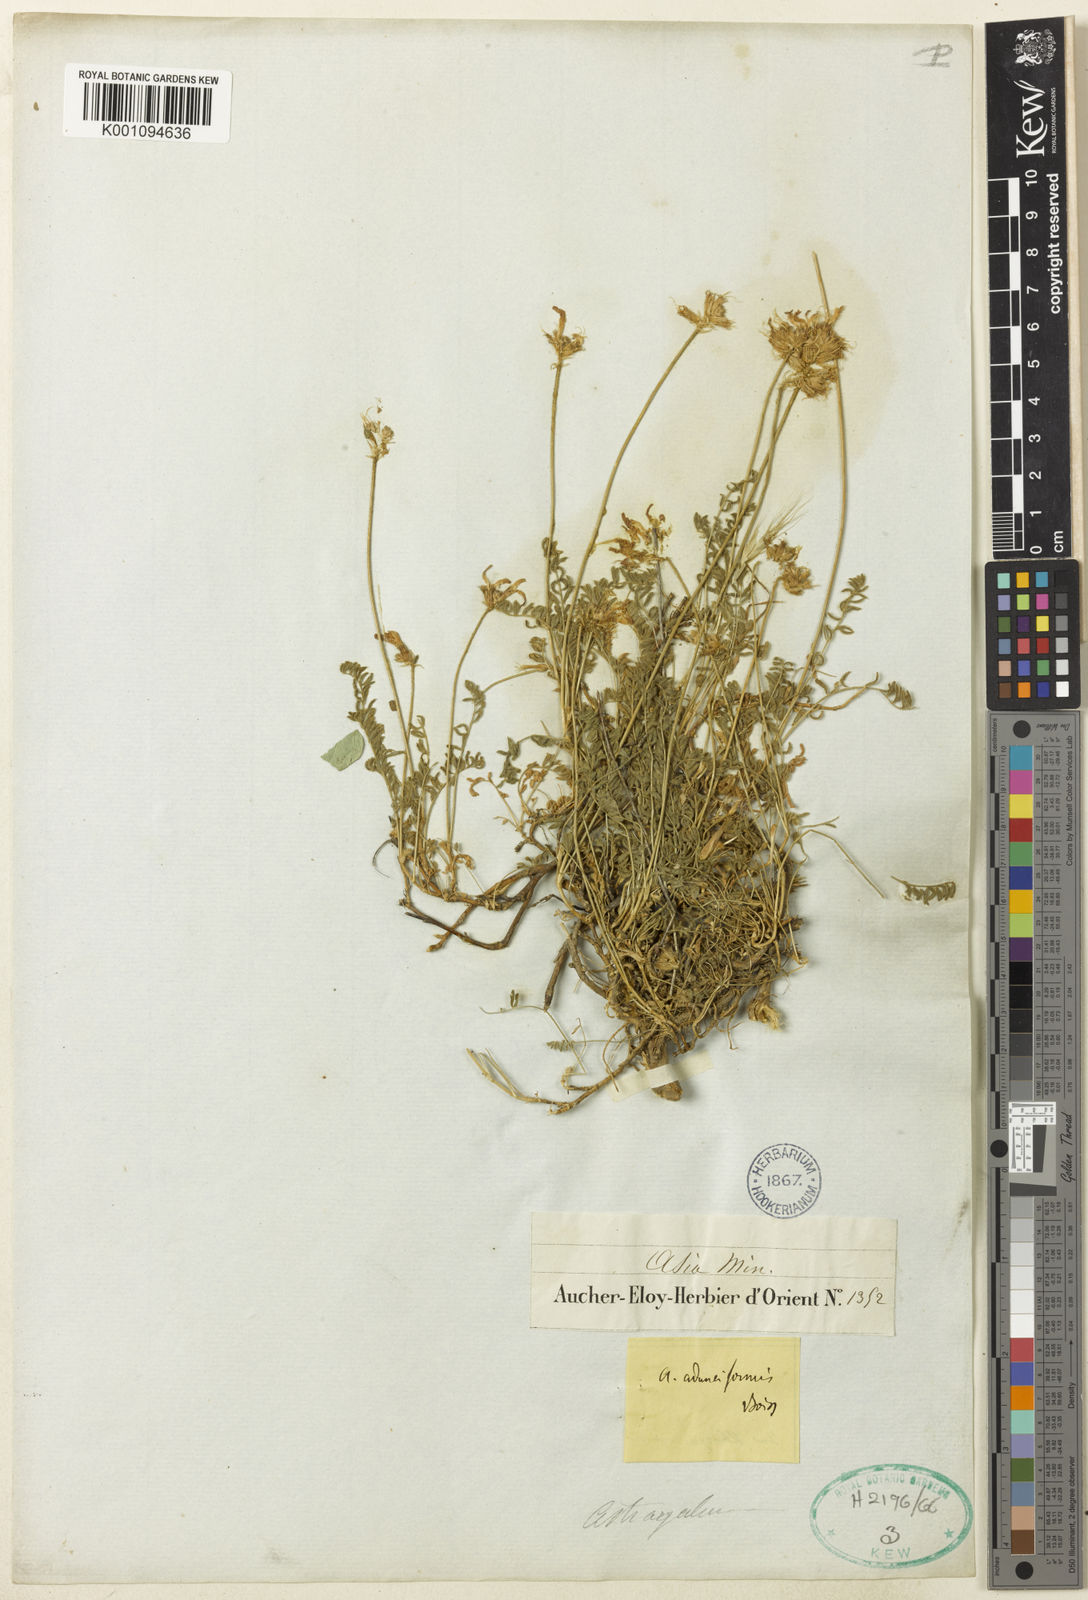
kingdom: Plantae
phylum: Tracheophyta
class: Magnoliopsida
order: Fabales
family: Fabaceae
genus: Astragalus
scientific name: Astragalus
